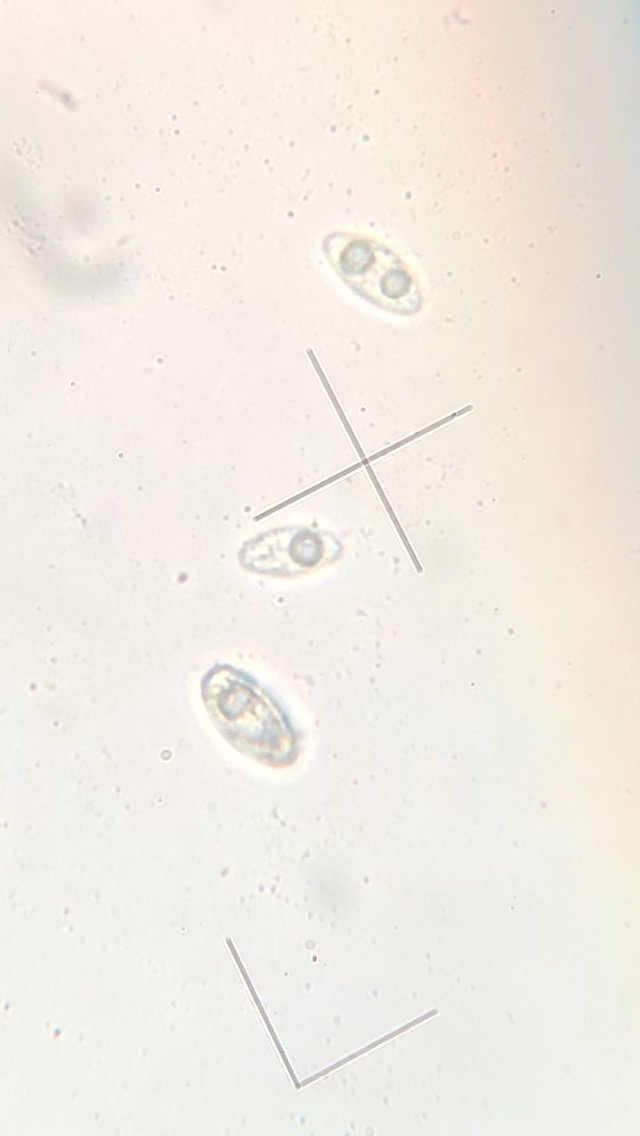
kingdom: Fungi
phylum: Ascomycota
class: Pezizomycetes
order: Pezizales
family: Discinaceae
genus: Gyromitra
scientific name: Gyromitra esculenta
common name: ægte stenmorkel
